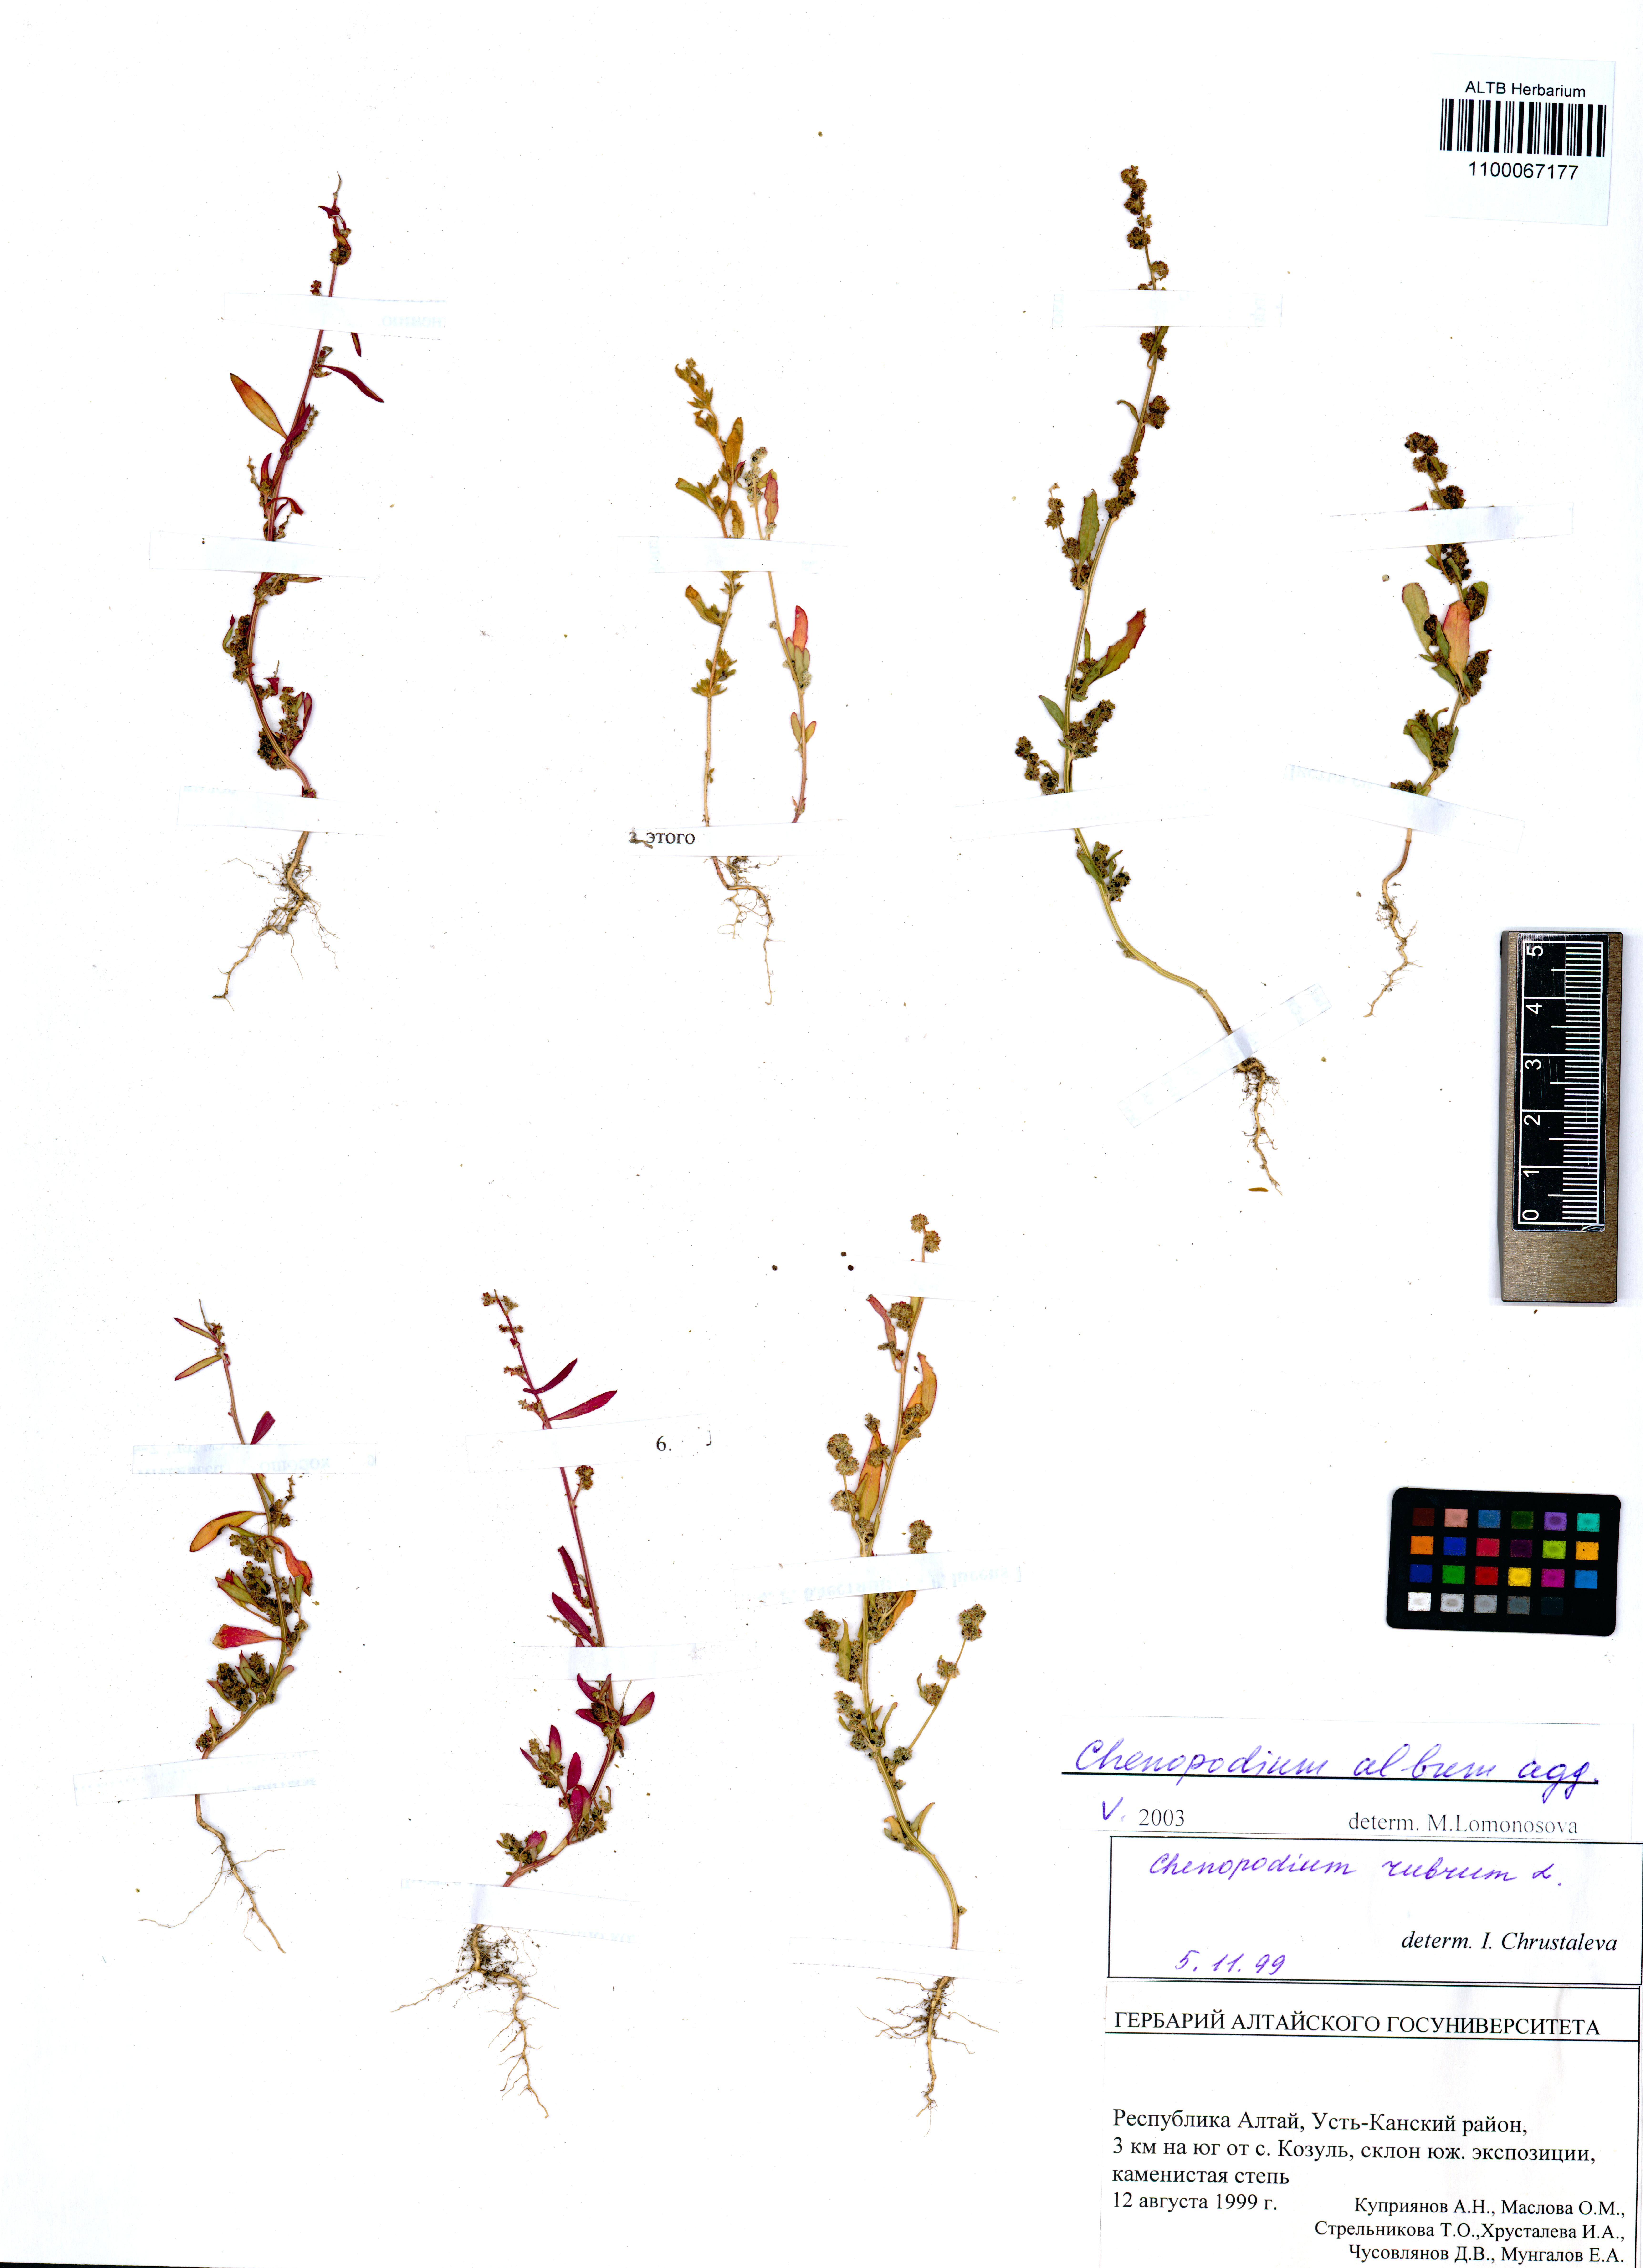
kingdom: Plantae
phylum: Tracheophyta
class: Magnoliopsida
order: Caryophyllales
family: Amaranthaceae
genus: Chenopodium
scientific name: Chenopodium album
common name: Fat-hen
